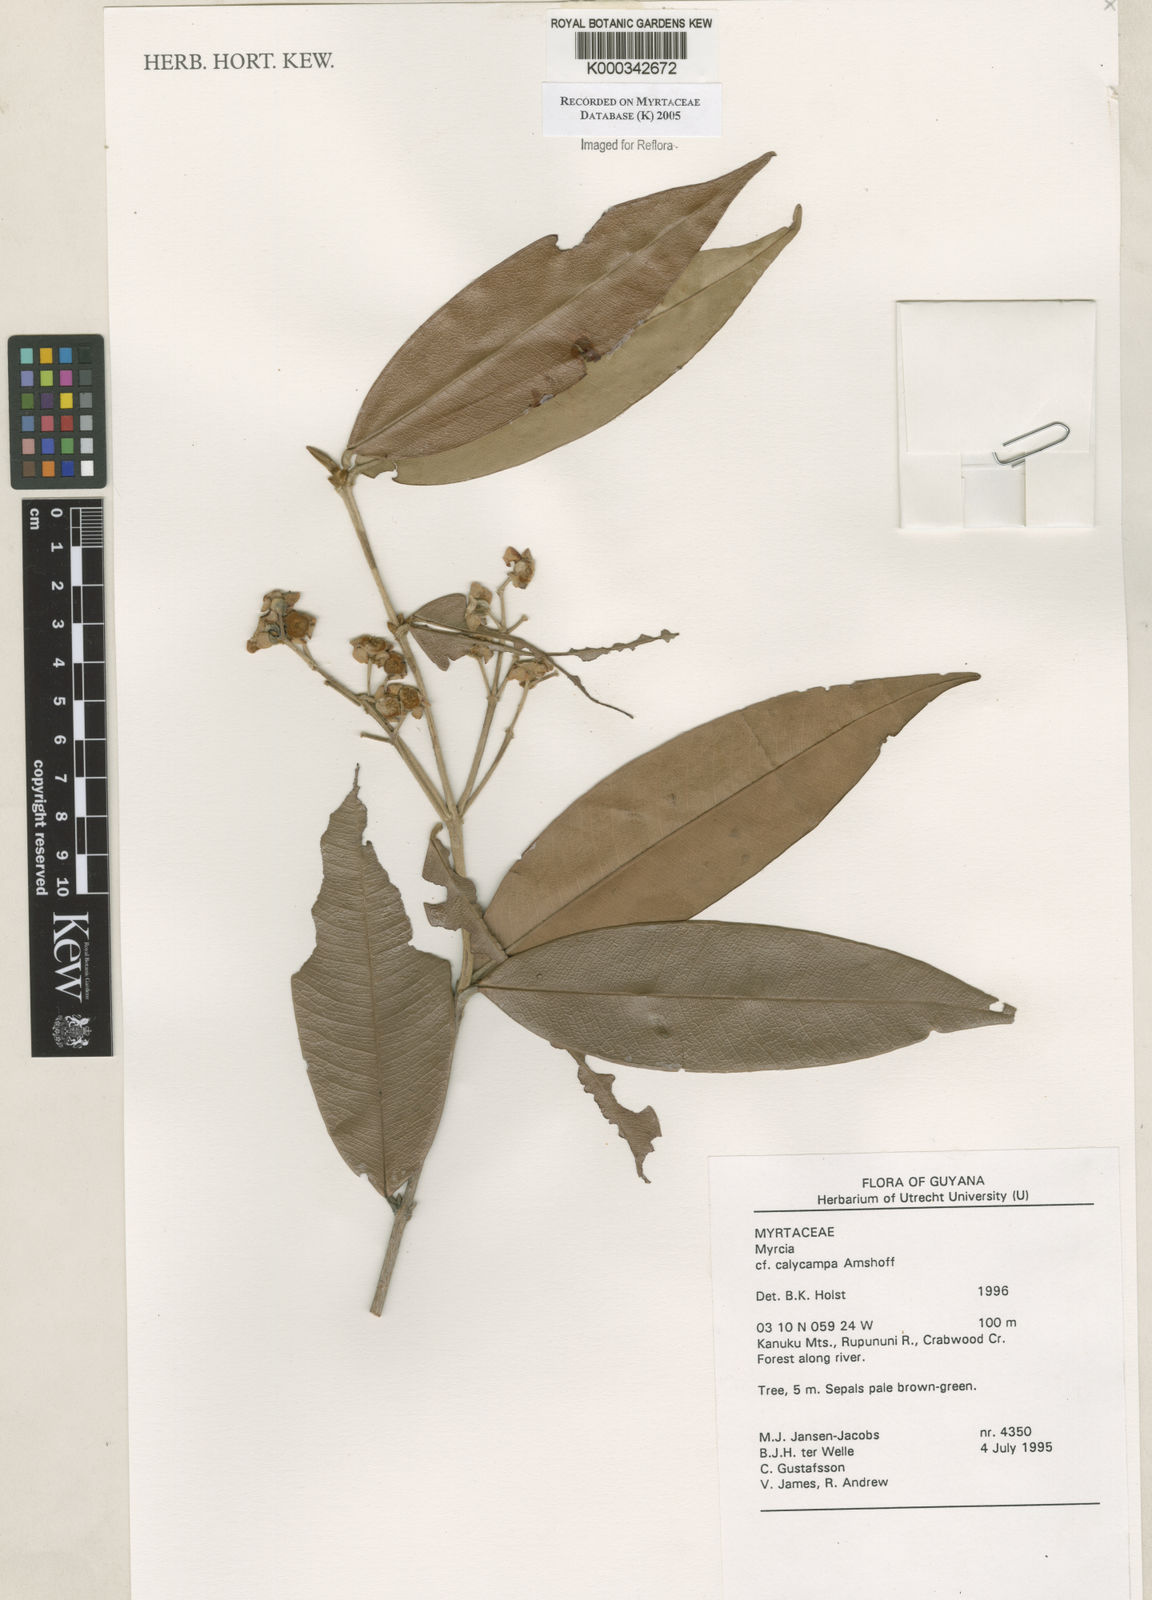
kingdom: Plantae
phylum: Tracheophyta
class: Magnoliopsida
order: Myrtales
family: Myrtaceae
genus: Myrcia
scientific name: Myrcia calycampa
